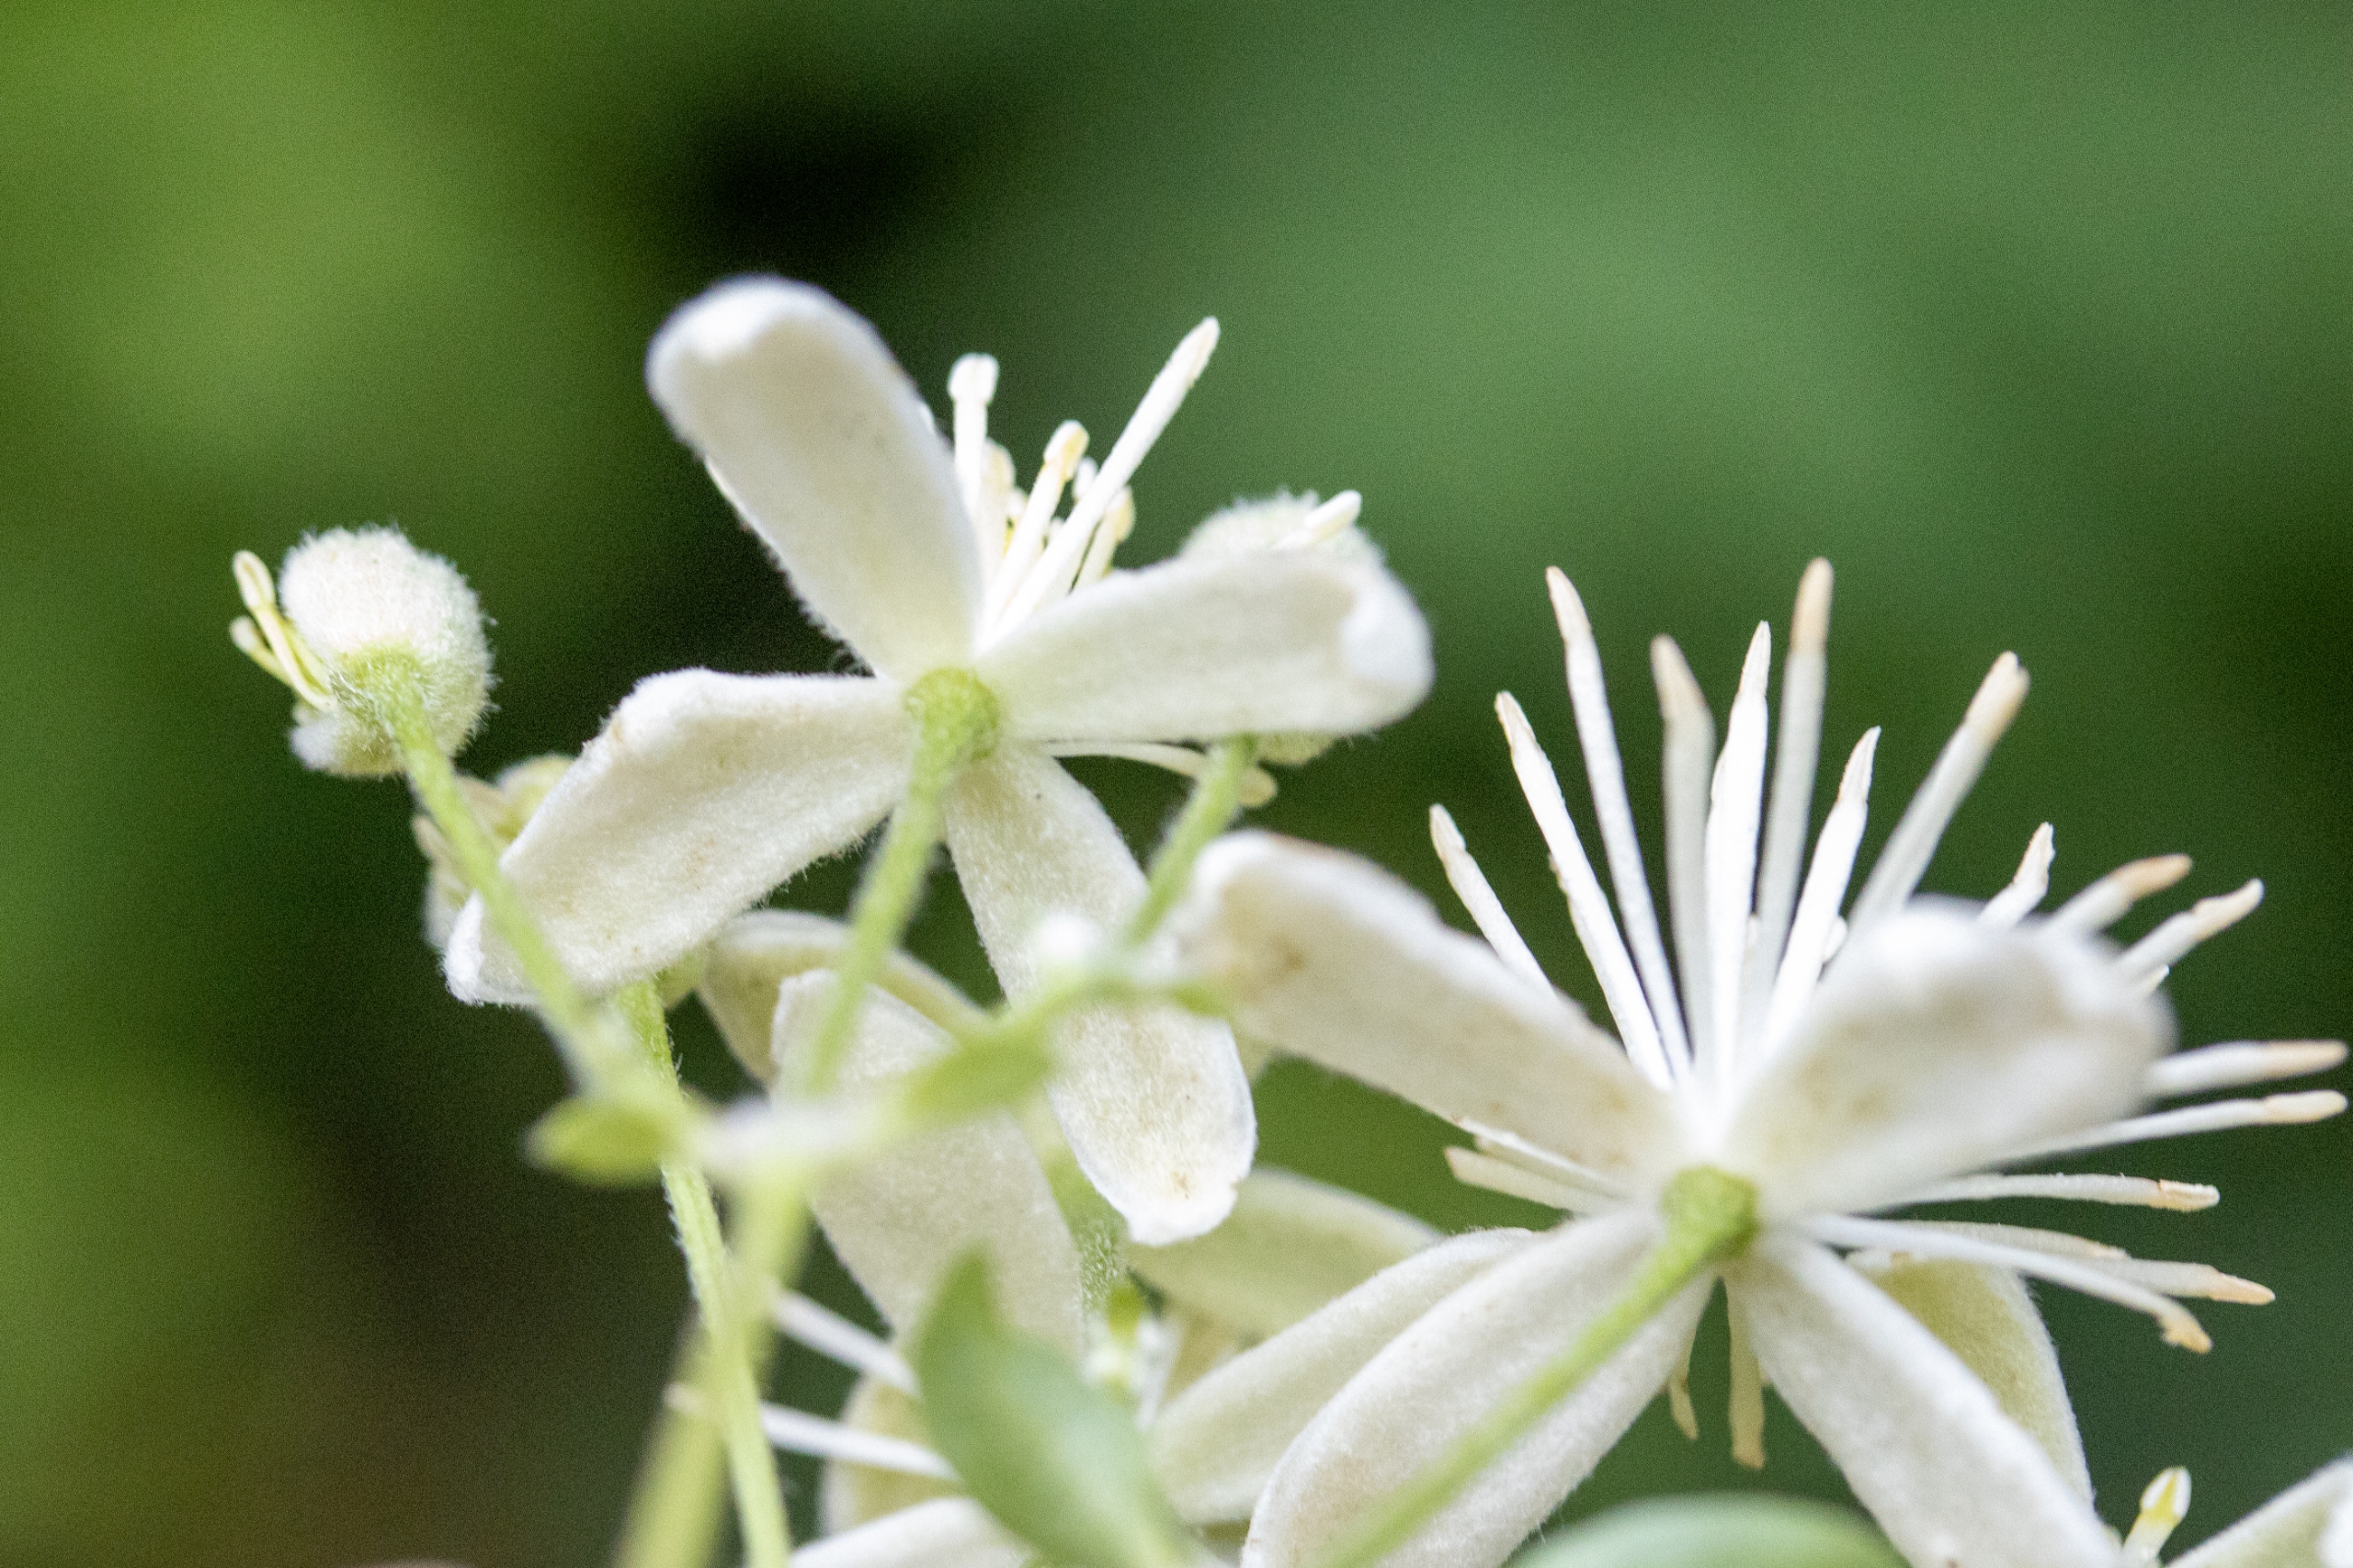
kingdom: Plantae
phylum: Tracheophyta
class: Magnoliopsida
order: Ranunculales
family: Ranunculaceae
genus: Clematis
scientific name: Clematis vitalba
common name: Skovranke
